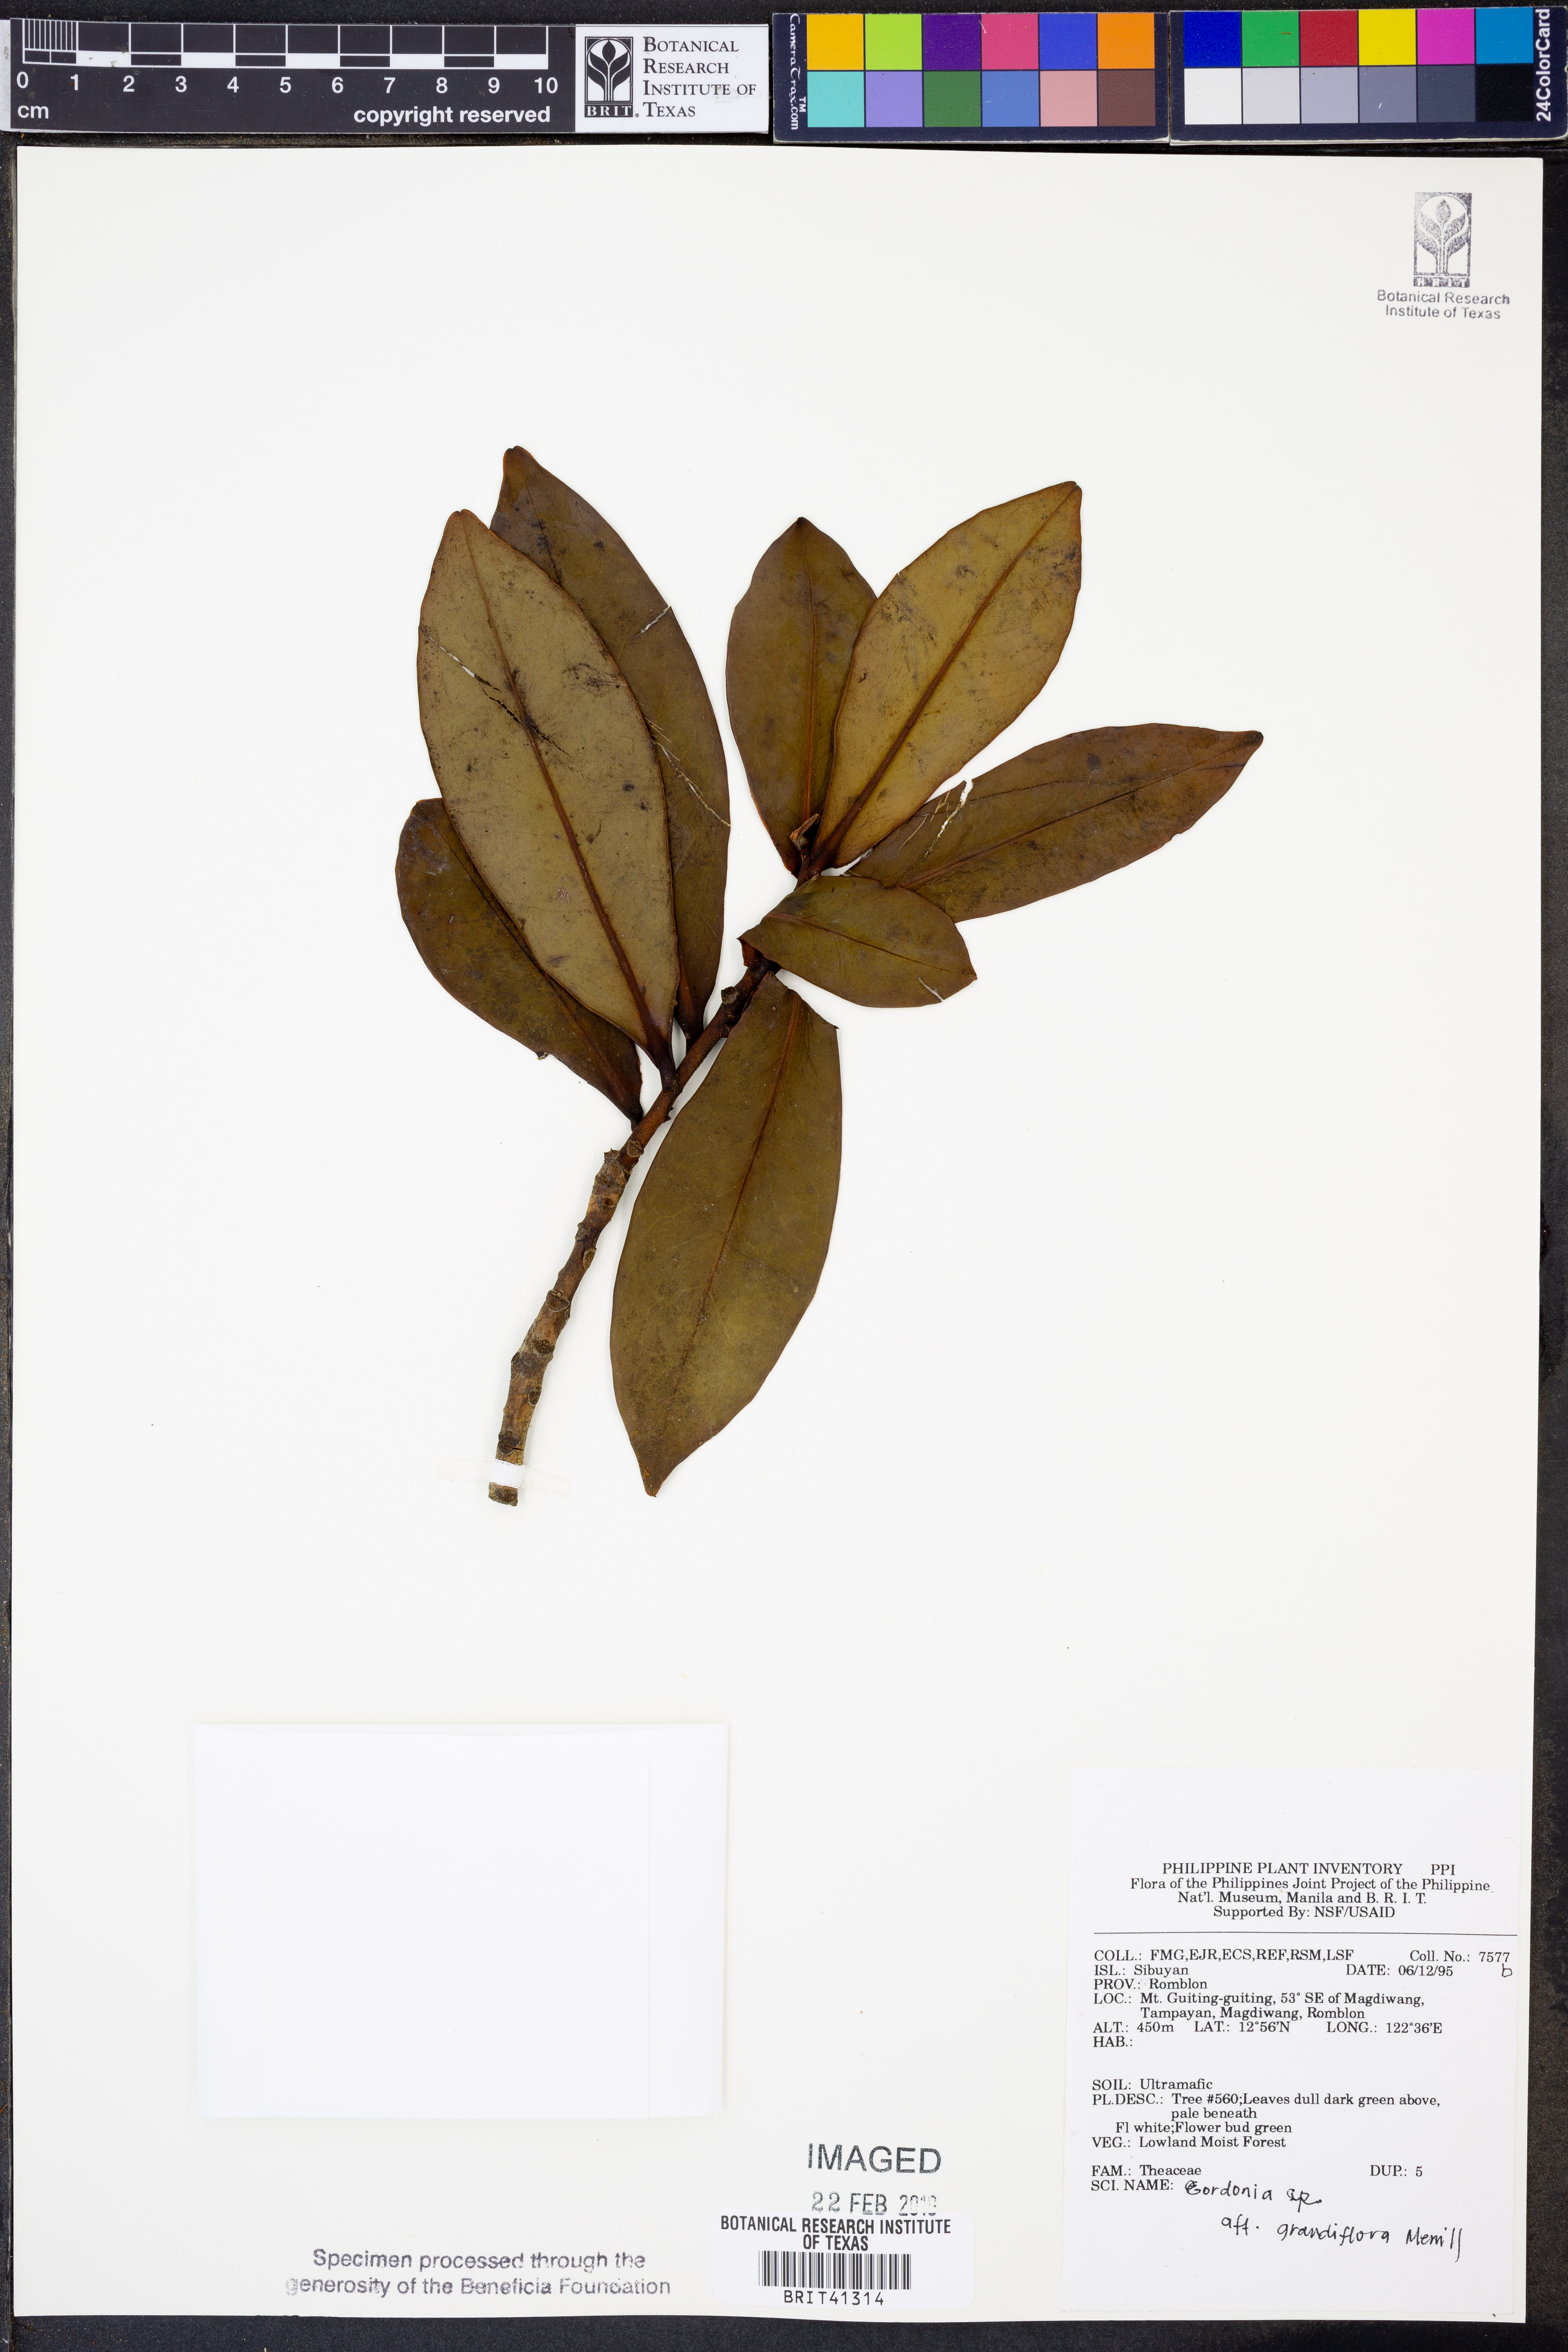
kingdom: Plantae
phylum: Tracheophyta
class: Magnoliopsida
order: Ericales
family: Theaceae
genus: Polyspora
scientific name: Polyspora grandiflora
